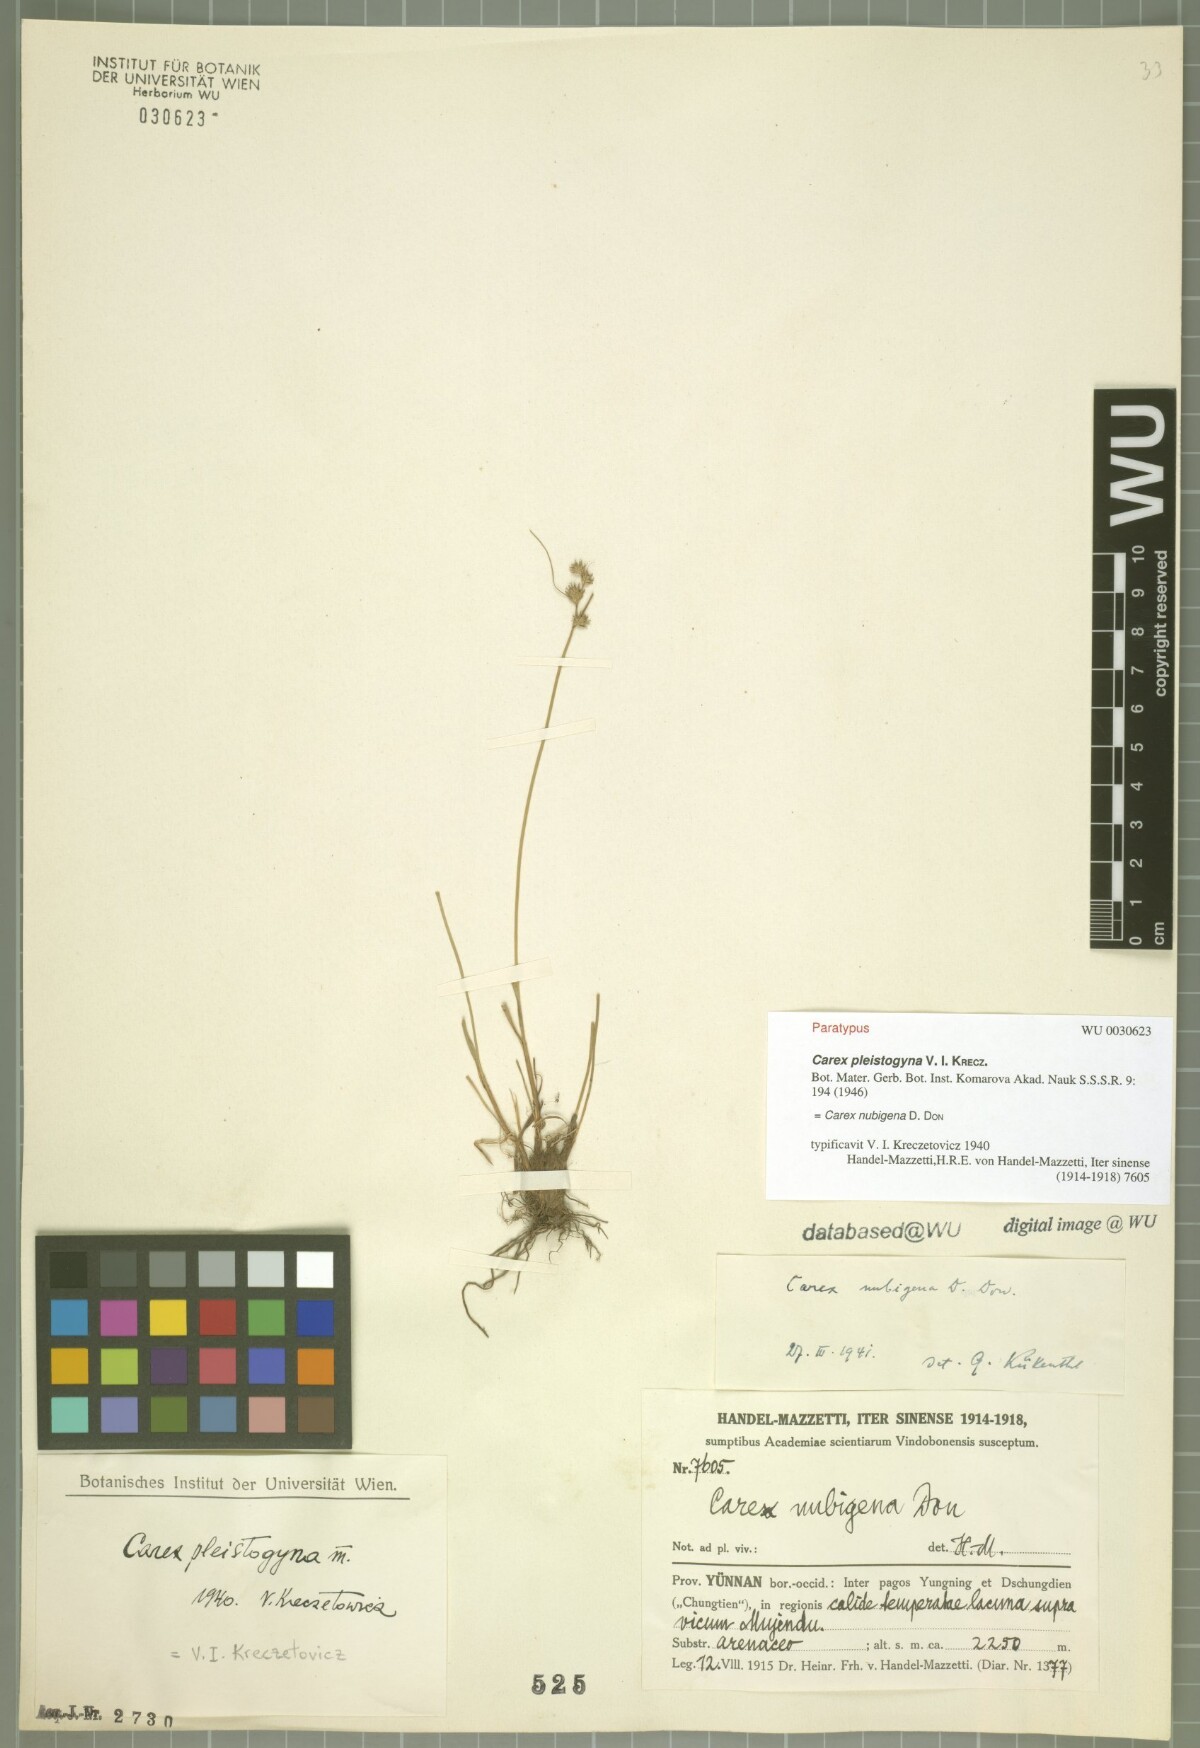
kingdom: Plantae
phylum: Tracheophyta
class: Liliopsida
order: Poales
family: Cyperaceae
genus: Carex
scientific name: Carex nubigena
